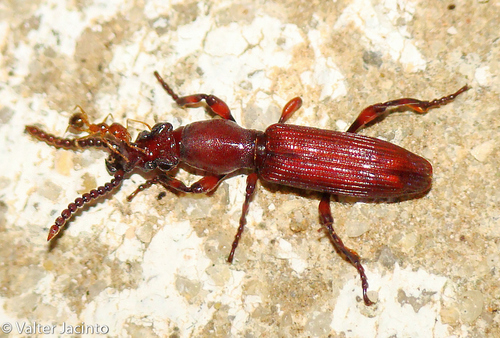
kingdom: Animalia
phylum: Arthropoda
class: Insecta
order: Coleoptera
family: Brentidae
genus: Amorphocephala
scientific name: Amorphocephala coronata
